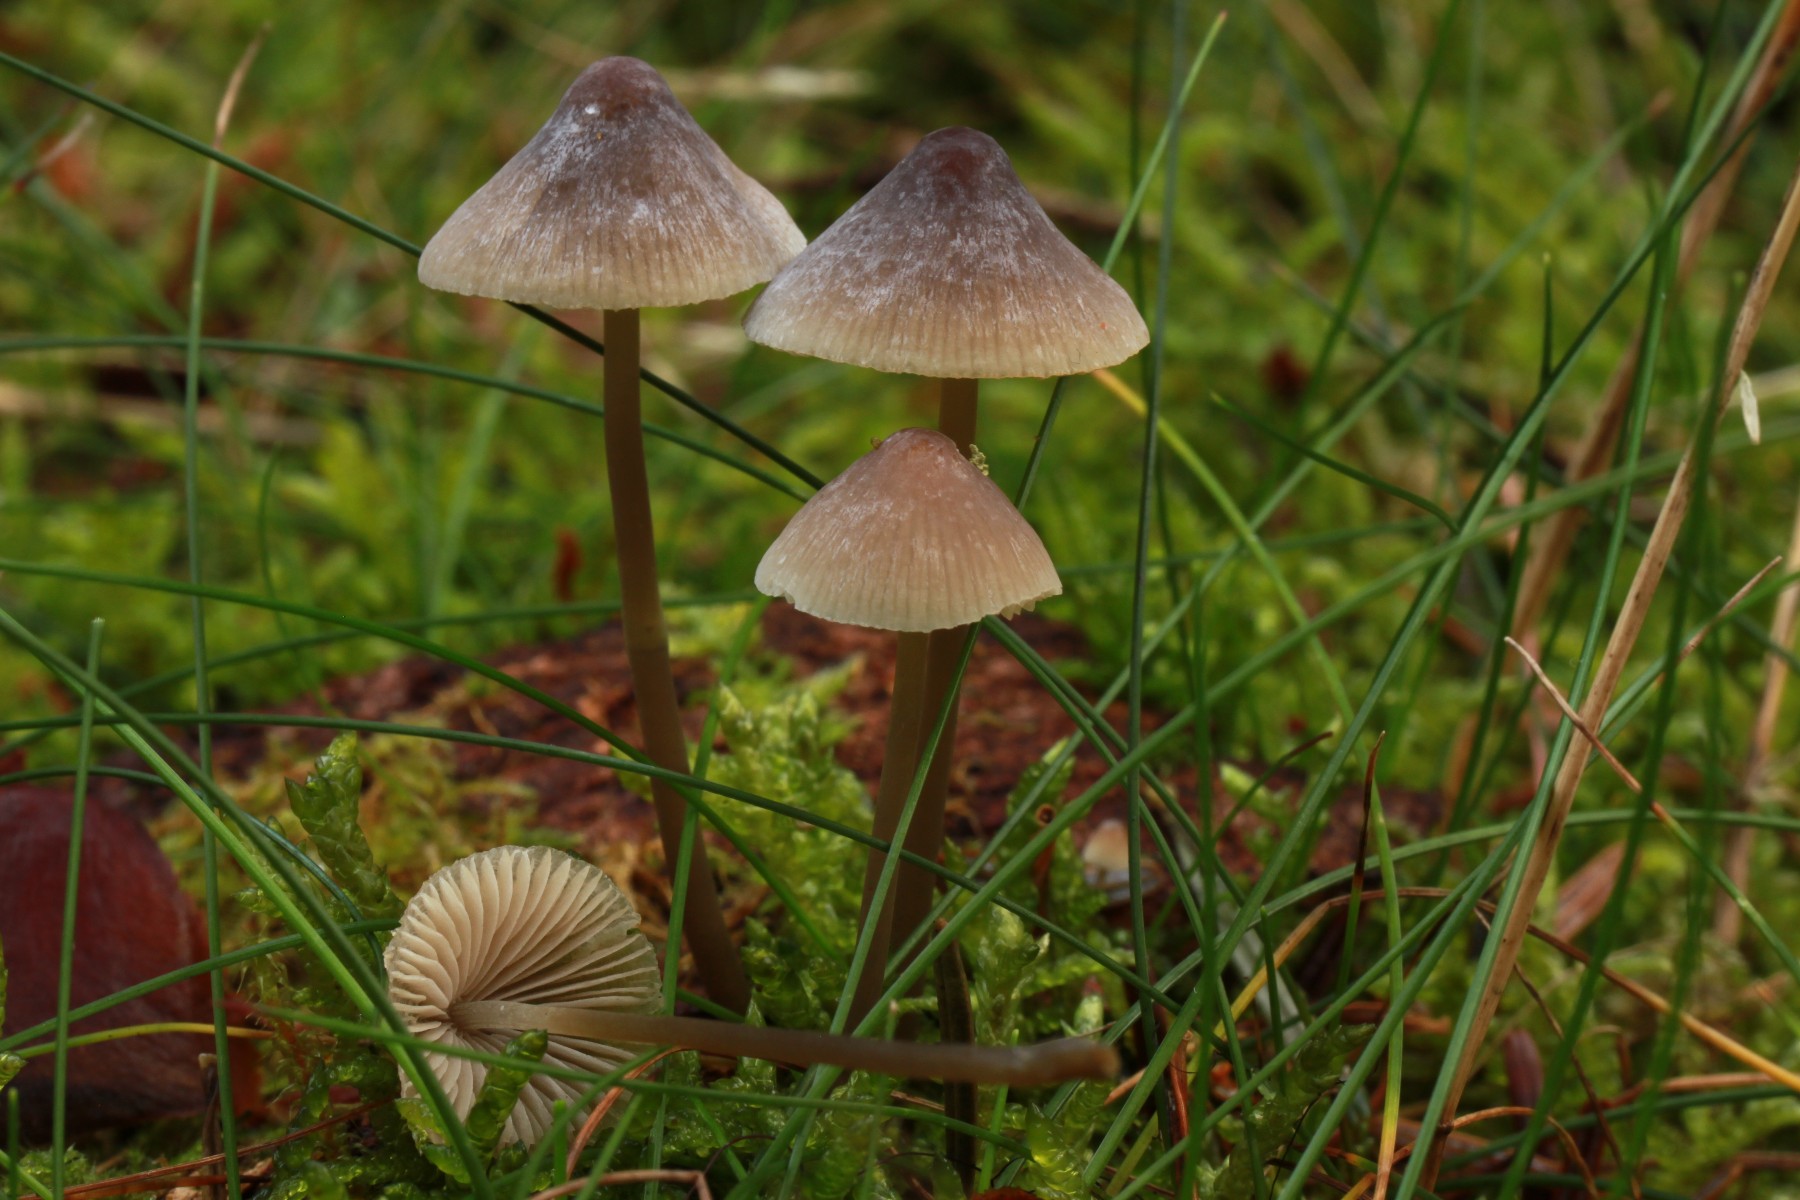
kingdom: Fungi
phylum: Basidiomycota
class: Agaricomycetes
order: Agaricales
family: Mycenaceae
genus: Mycena
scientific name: Mycena filopes
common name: jod-huesvamp
